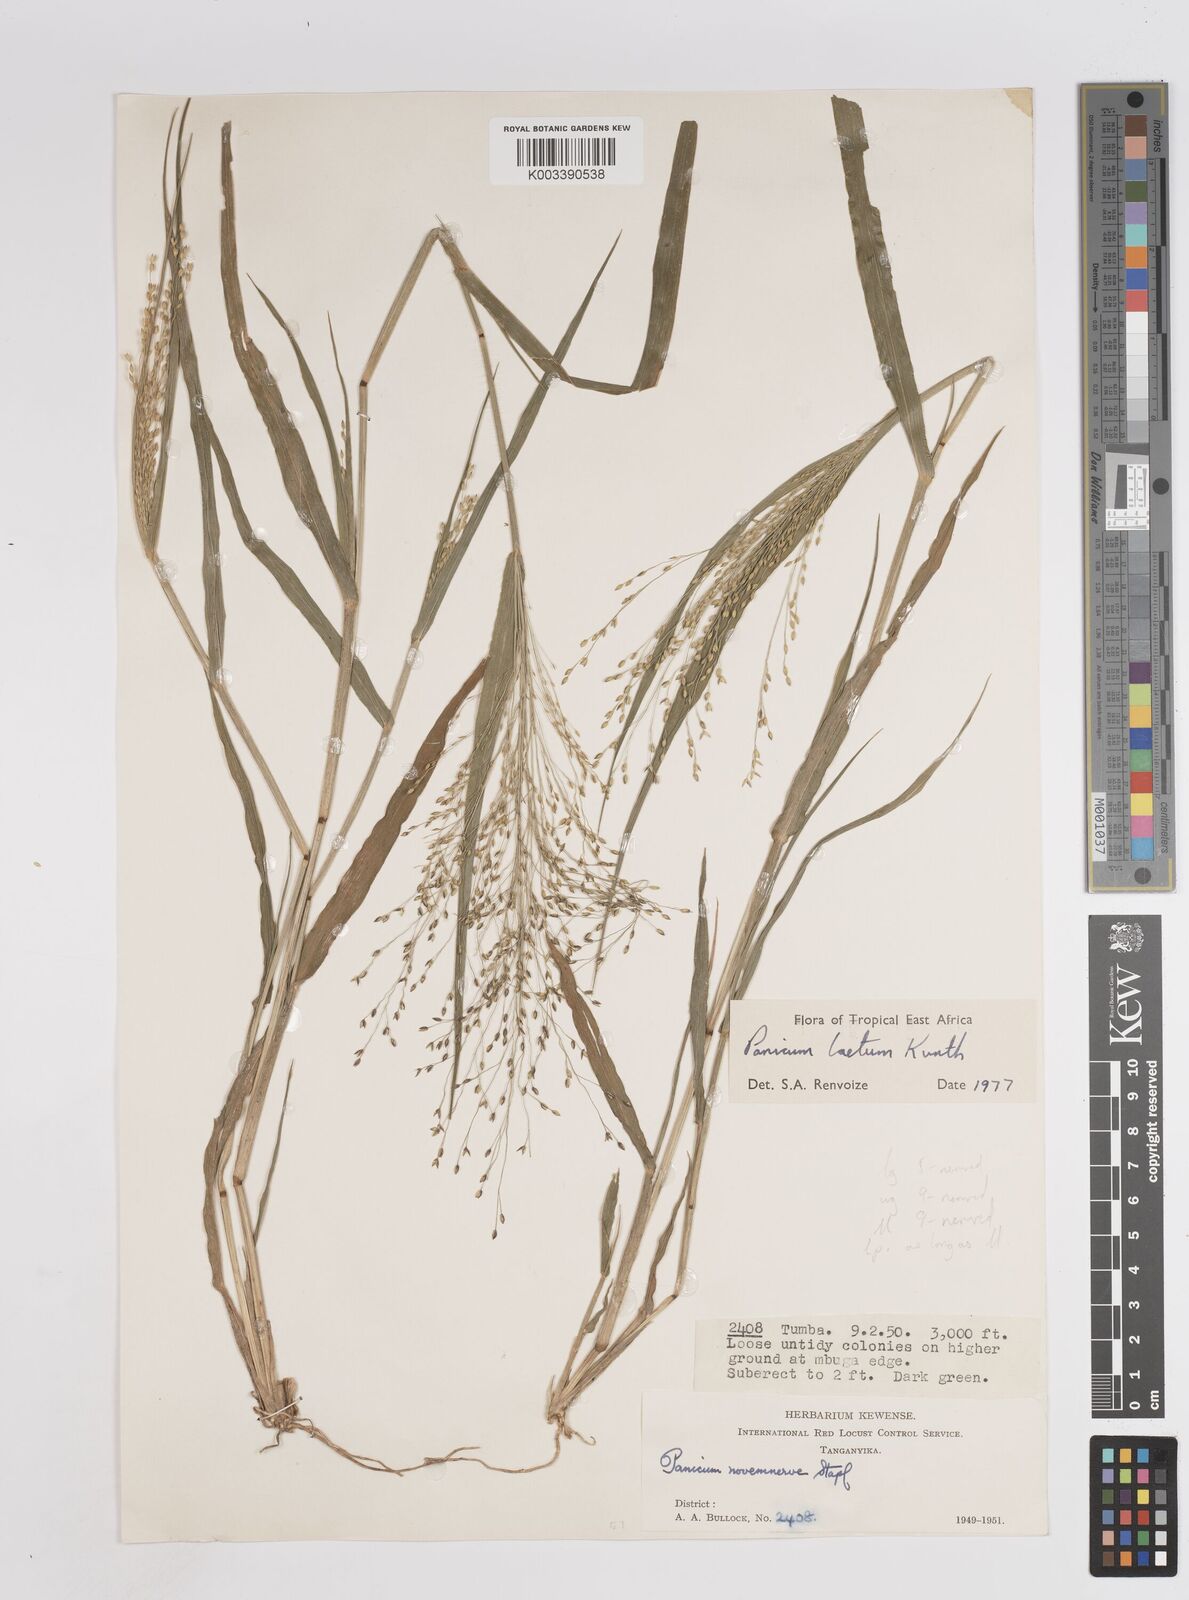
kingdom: Plantae
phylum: Tracheophyta
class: Liliopsida
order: Poales
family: Poaceae
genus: Panicum
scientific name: Panicum laetum
